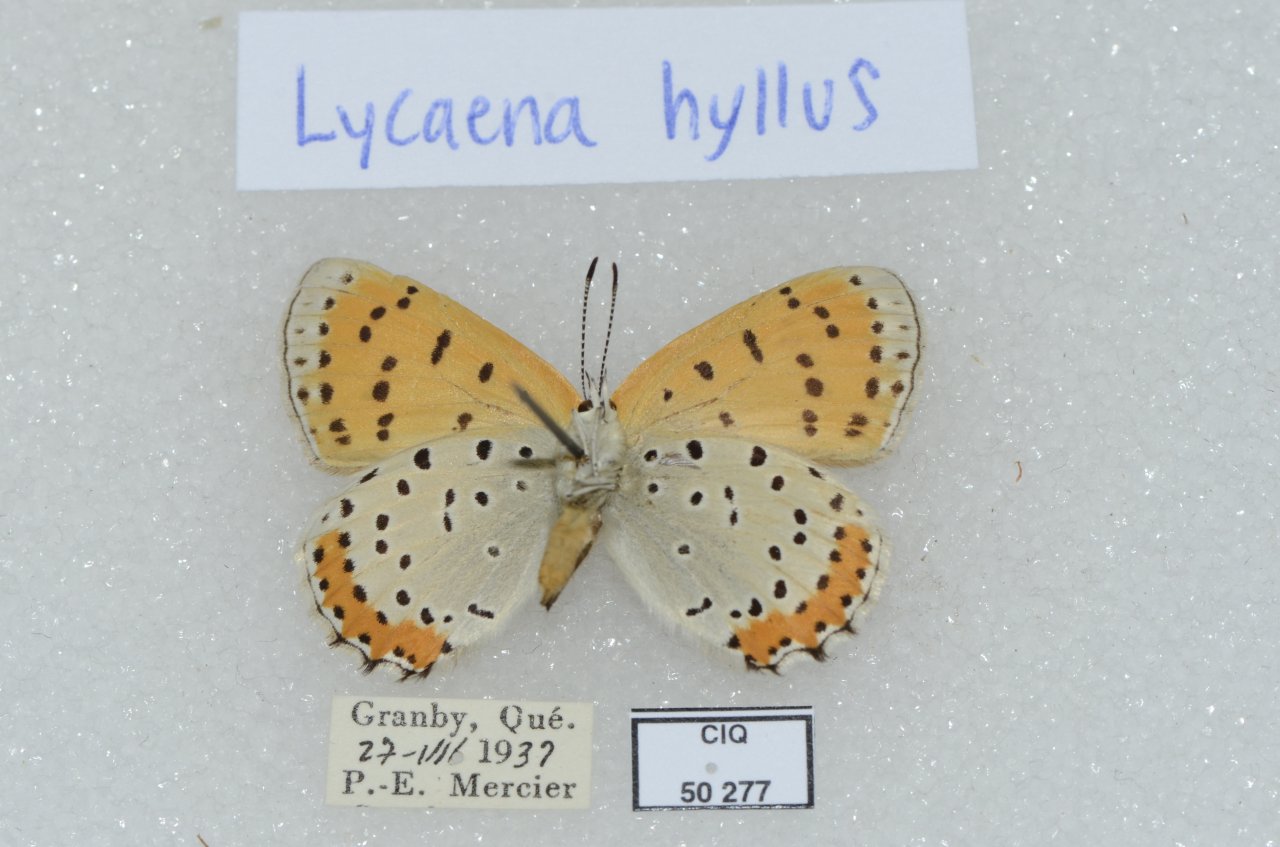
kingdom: Animalia
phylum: Arthropoda
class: Insecta
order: Lepidoptera
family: Sesiidae
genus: Sesia
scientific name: Sesia Lycaena hyllus
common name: Bronze Copper
